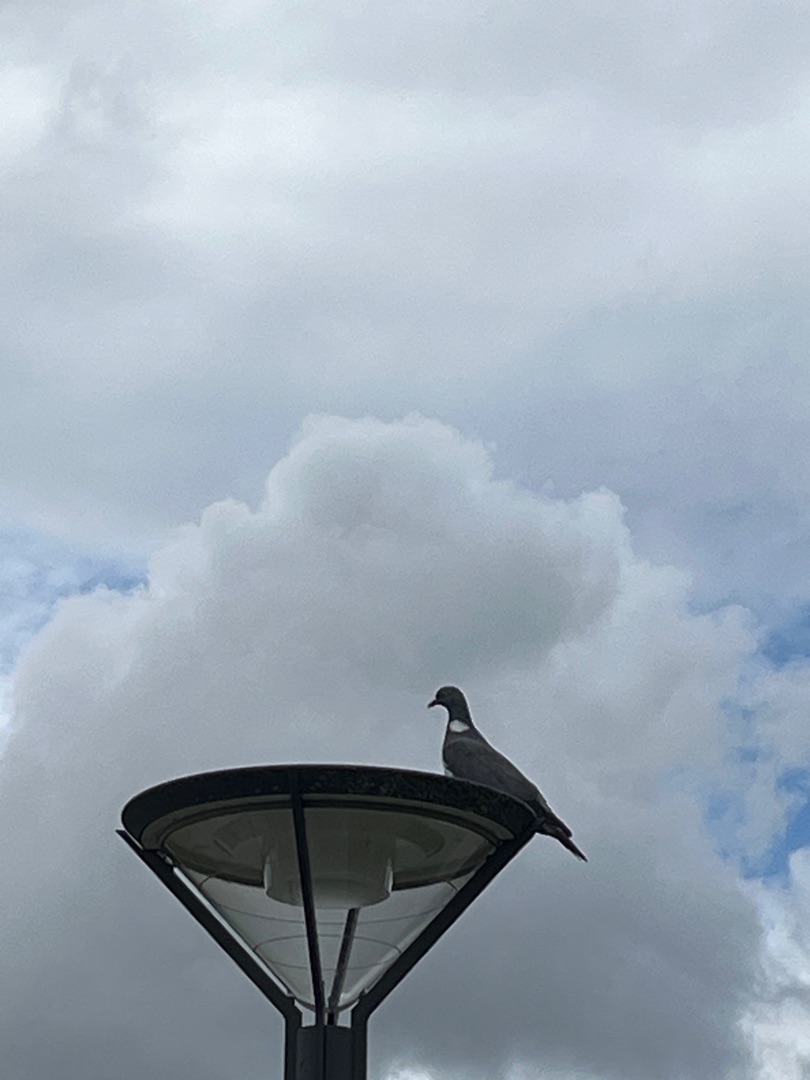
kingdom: Animalia
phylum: Chordata
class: Aves
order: Columbiformes
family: Columbidae
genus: Columba
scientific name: Columba palumbus
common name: Ringdue
